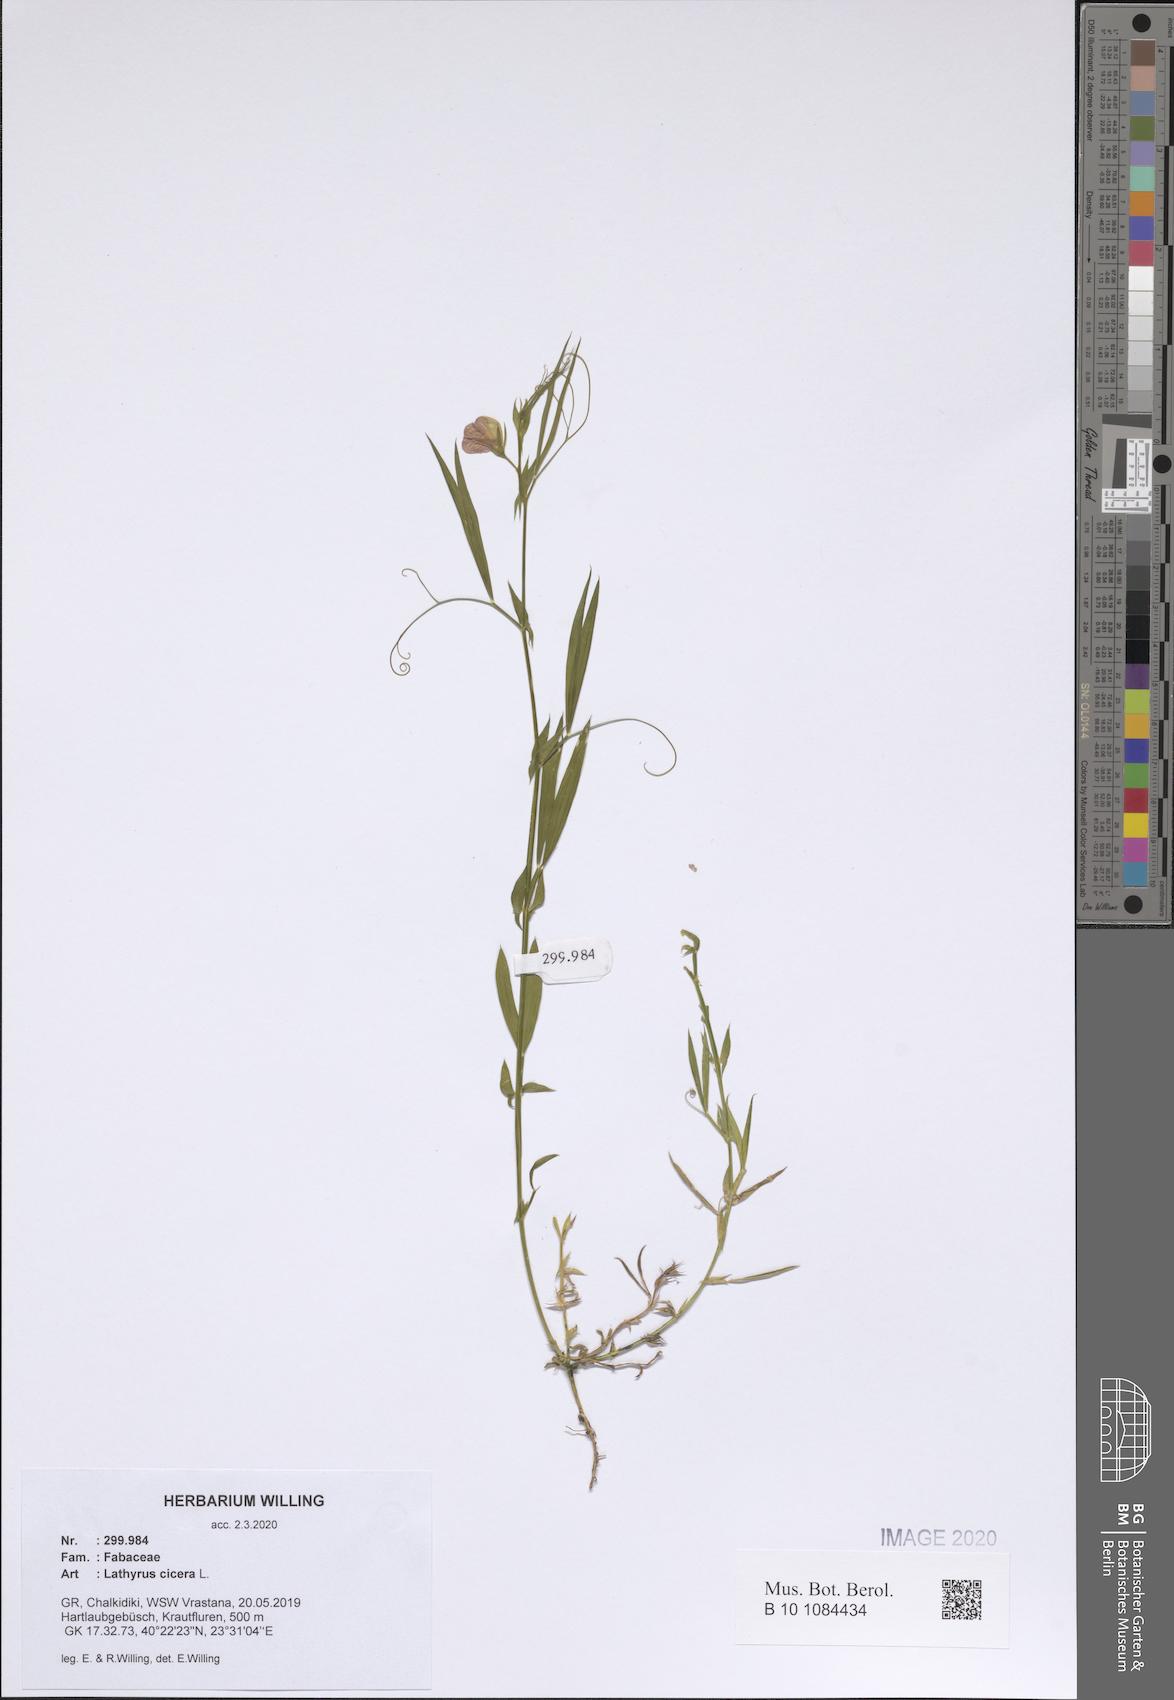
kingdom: Plantae
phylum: Tracheophyta
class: Magnoliopsida
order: Fabales
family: Fabaceae
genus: Lathyrus
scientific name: Lathyrus cicera
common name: Red vetchling
